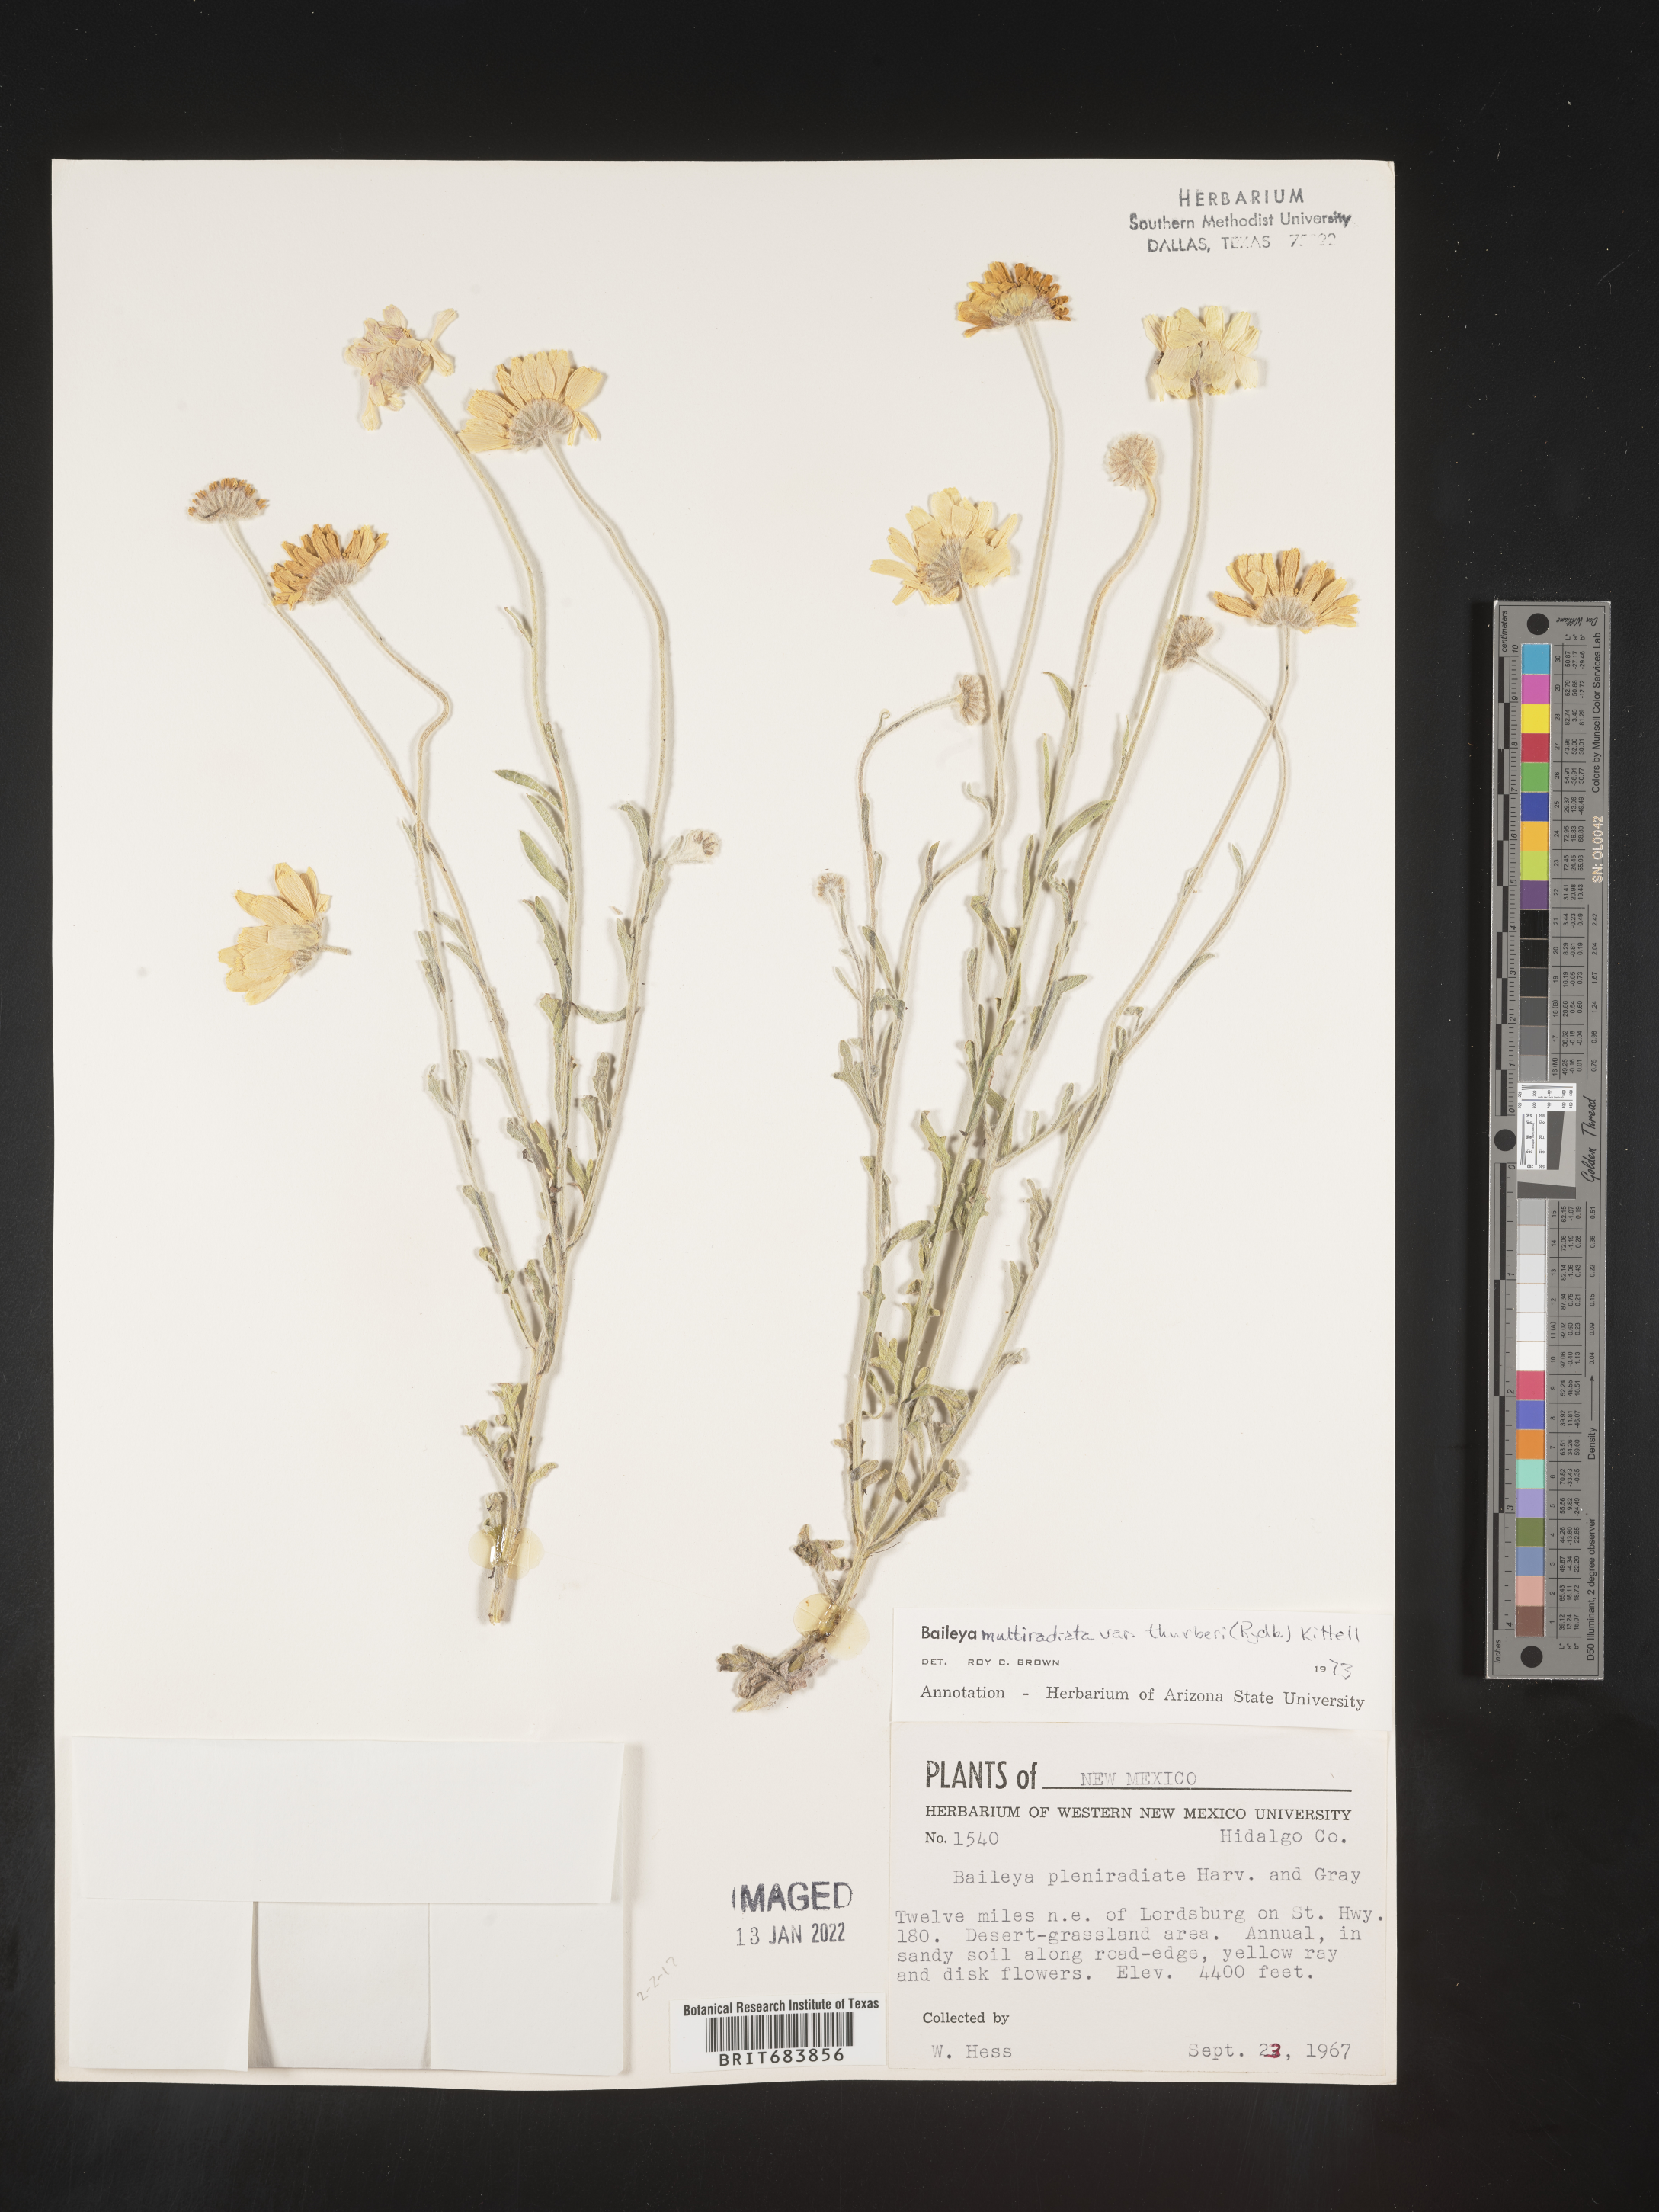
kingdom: Plantae
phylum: Tracheophyta
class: Magnoliopsida
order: Asterales
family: Asteraceae
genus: Baileya
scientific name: Baileya multiradiata
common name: Desert-marigold
